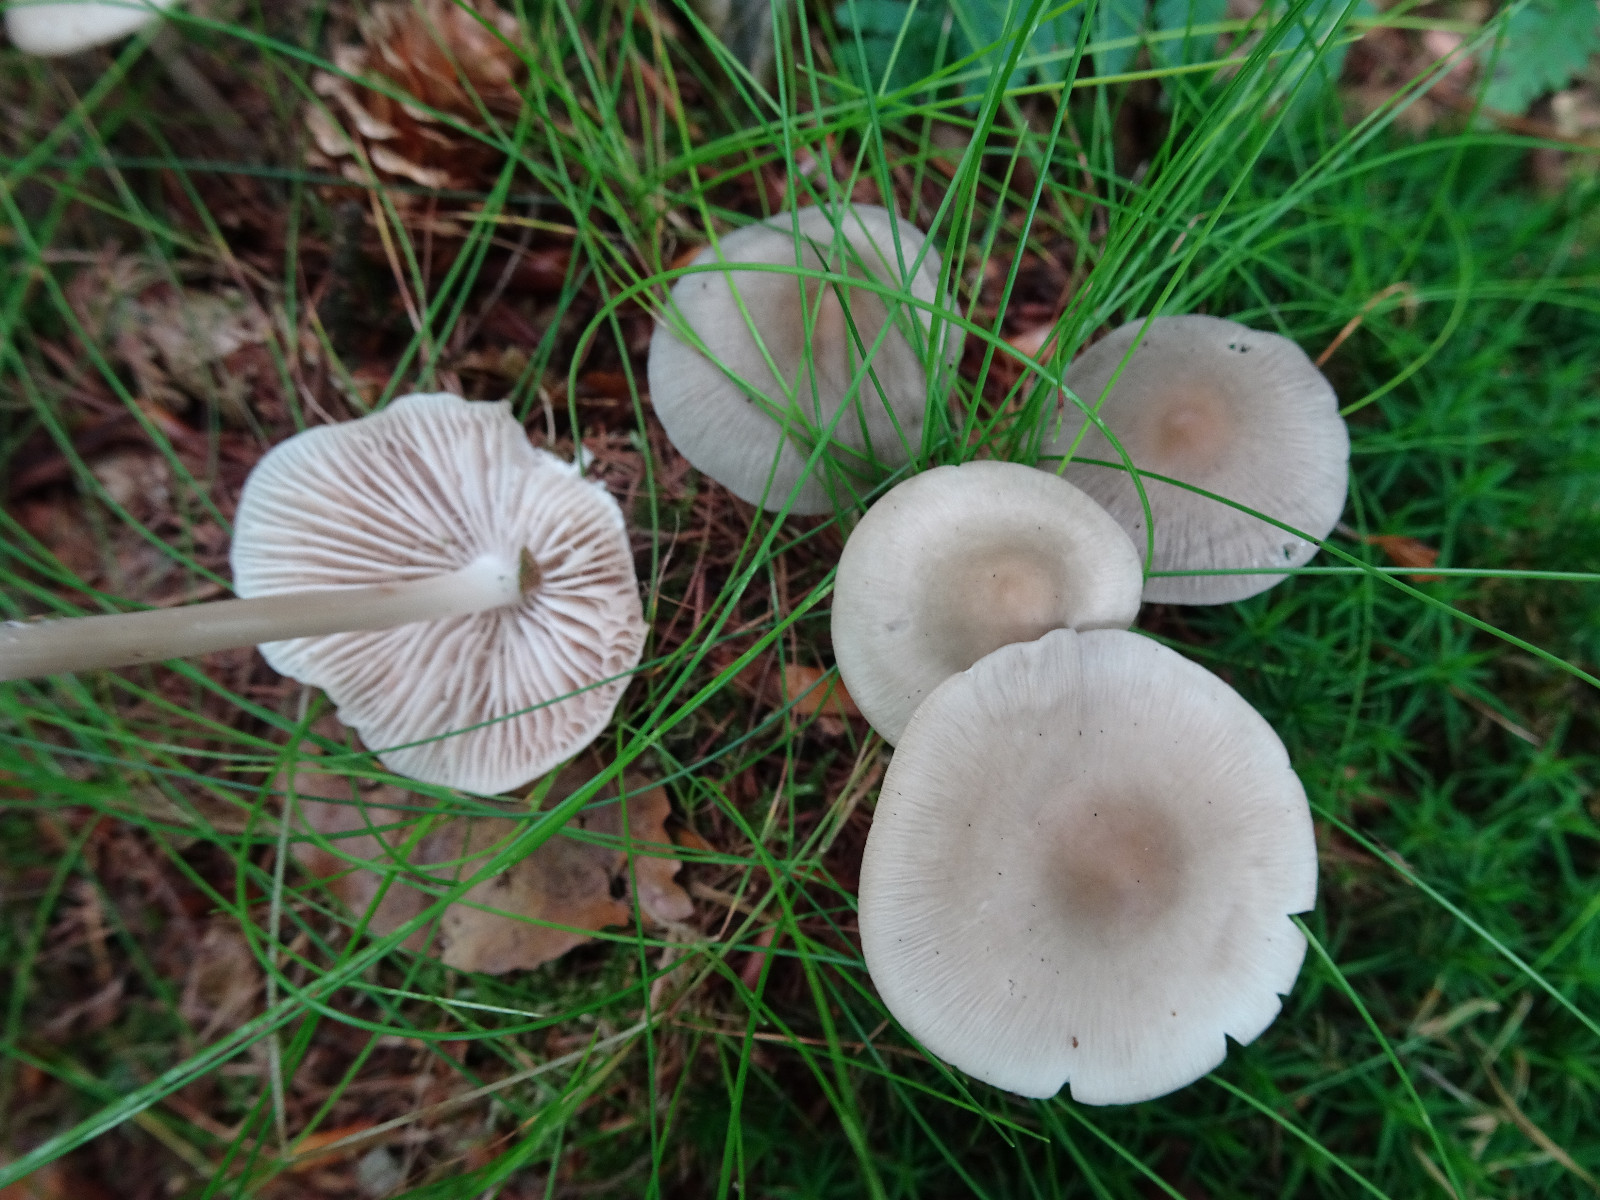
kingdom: Fungi
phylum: Basidiomycota
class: Agaricomycetes
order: Agaricales
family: Mycenaceae
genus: Mycena
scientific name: Mycena galericulata
